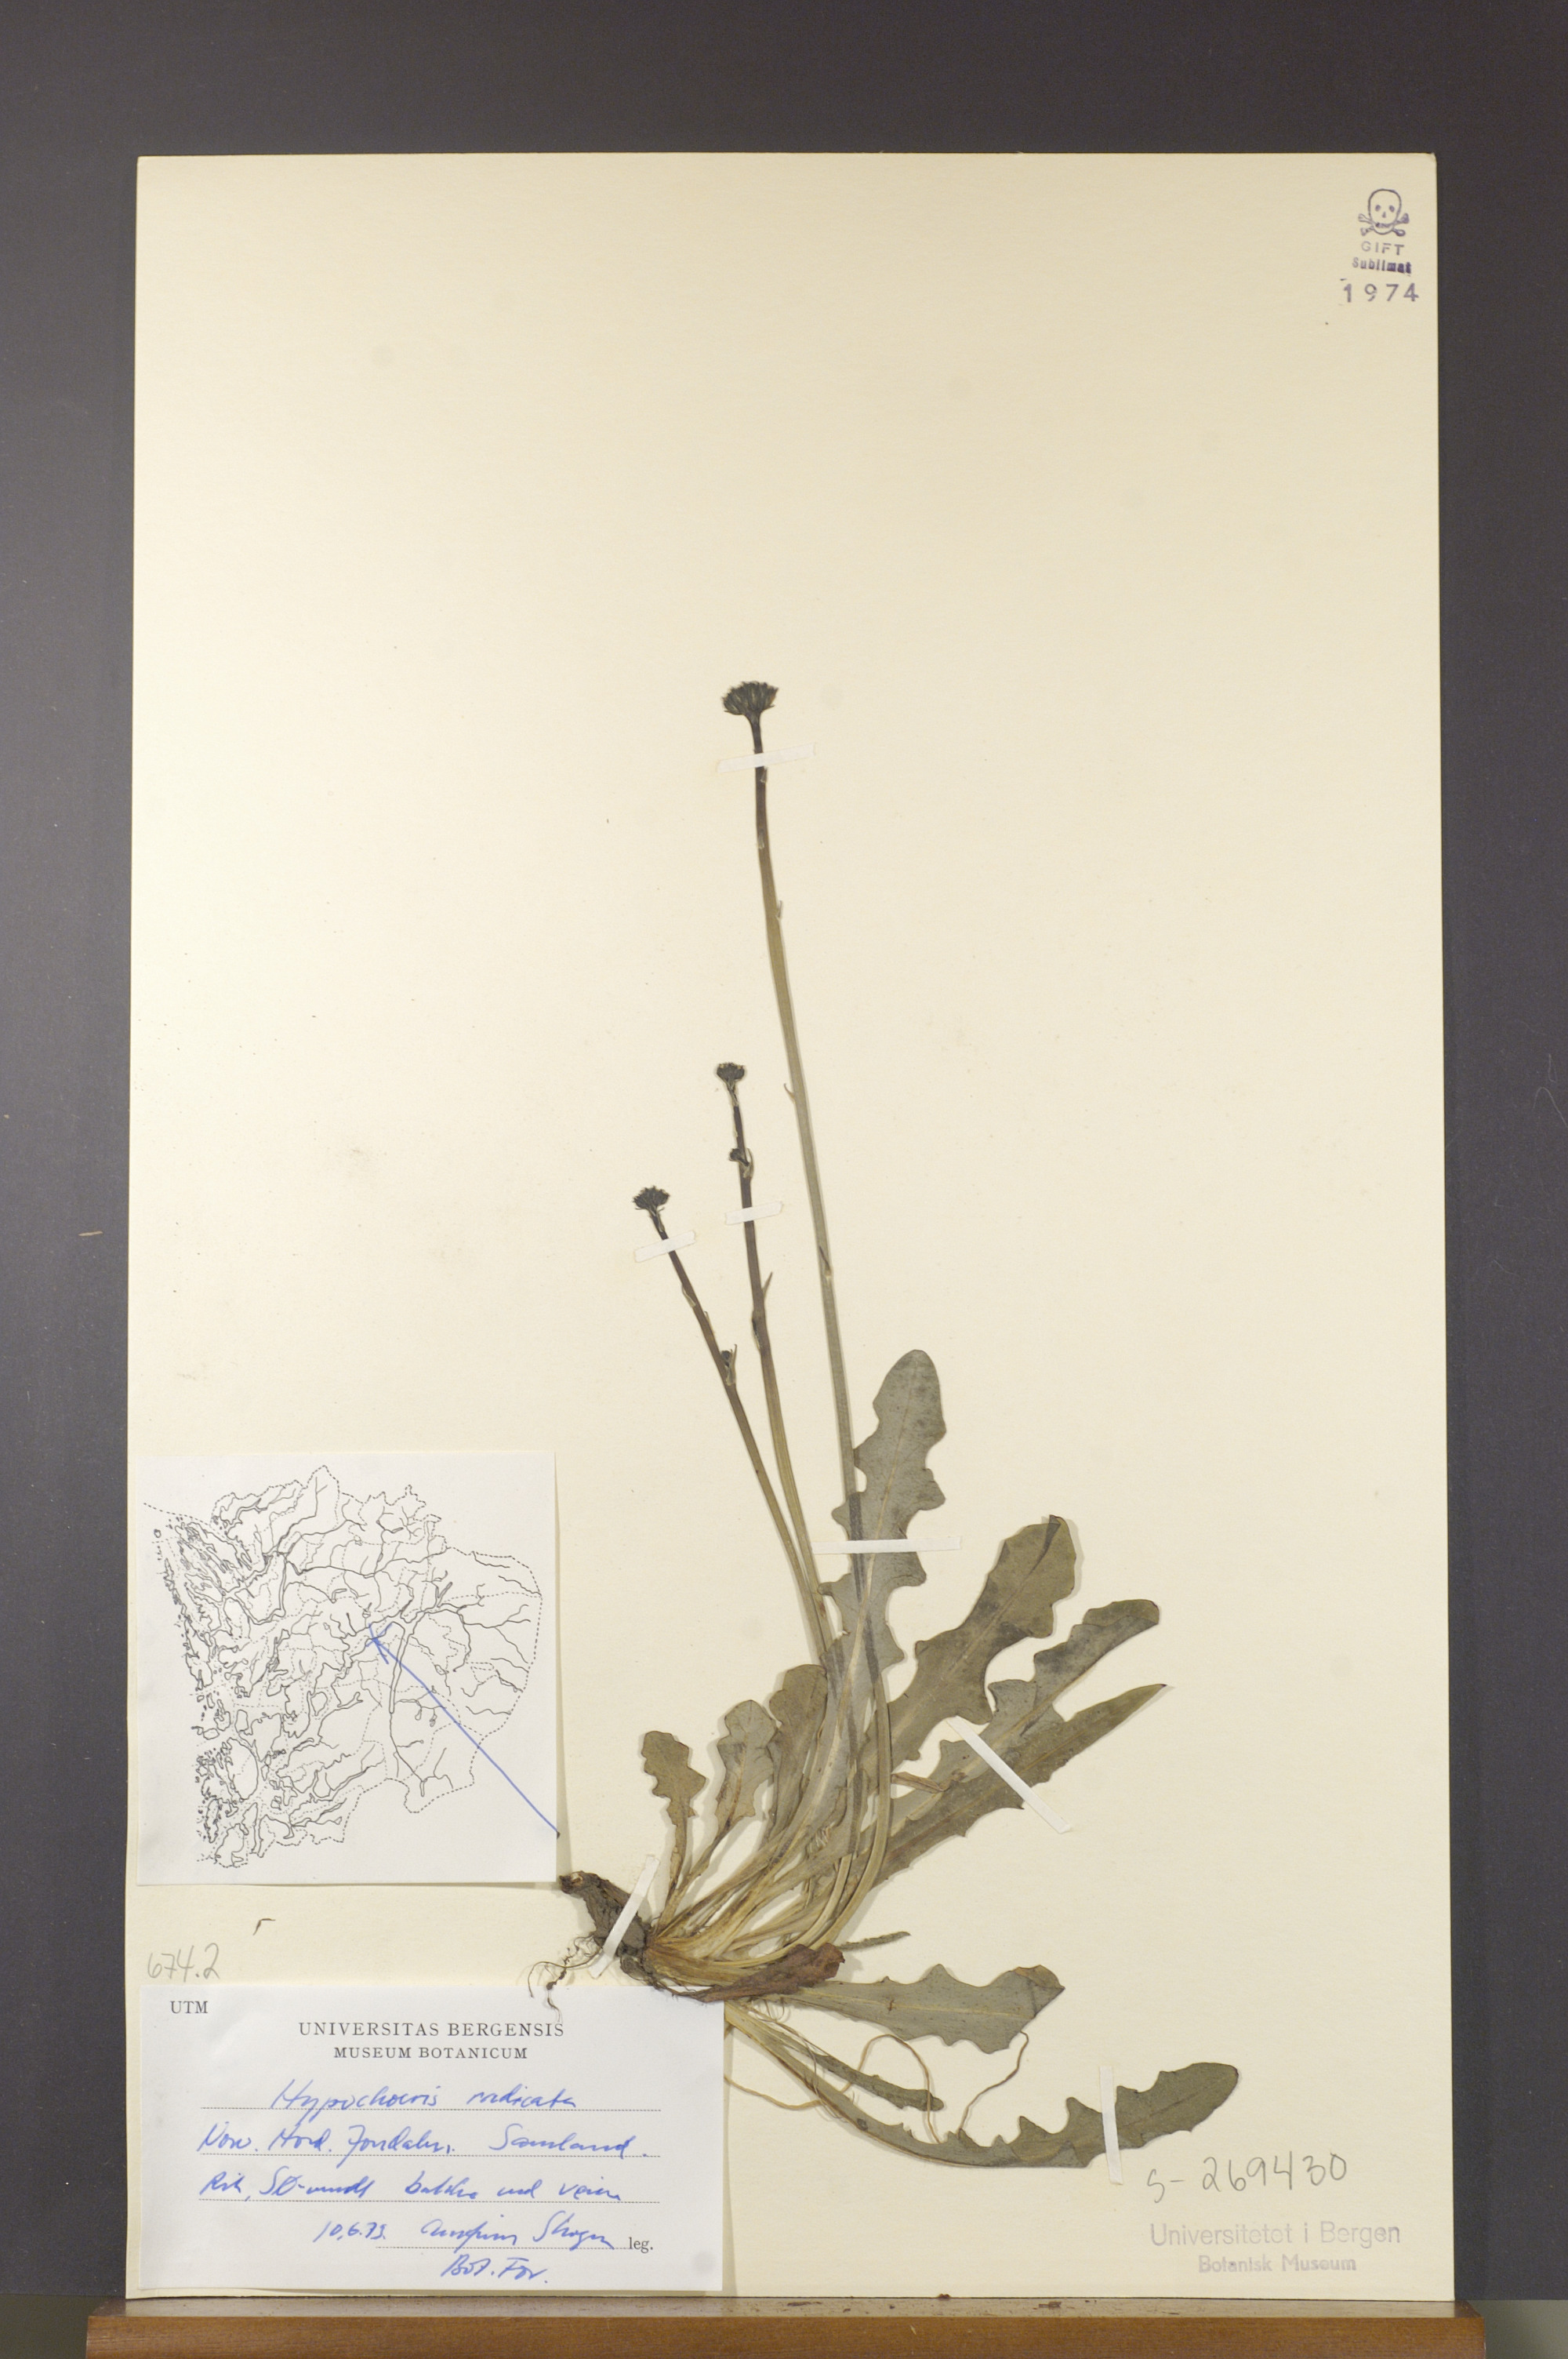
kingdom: Plantae
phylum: Tracheophyta
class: Magnoliopsida
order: Asterales
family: Asteraceae
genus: Hypochaeris
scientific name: Hypochaeris radicata
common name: Flatweed
